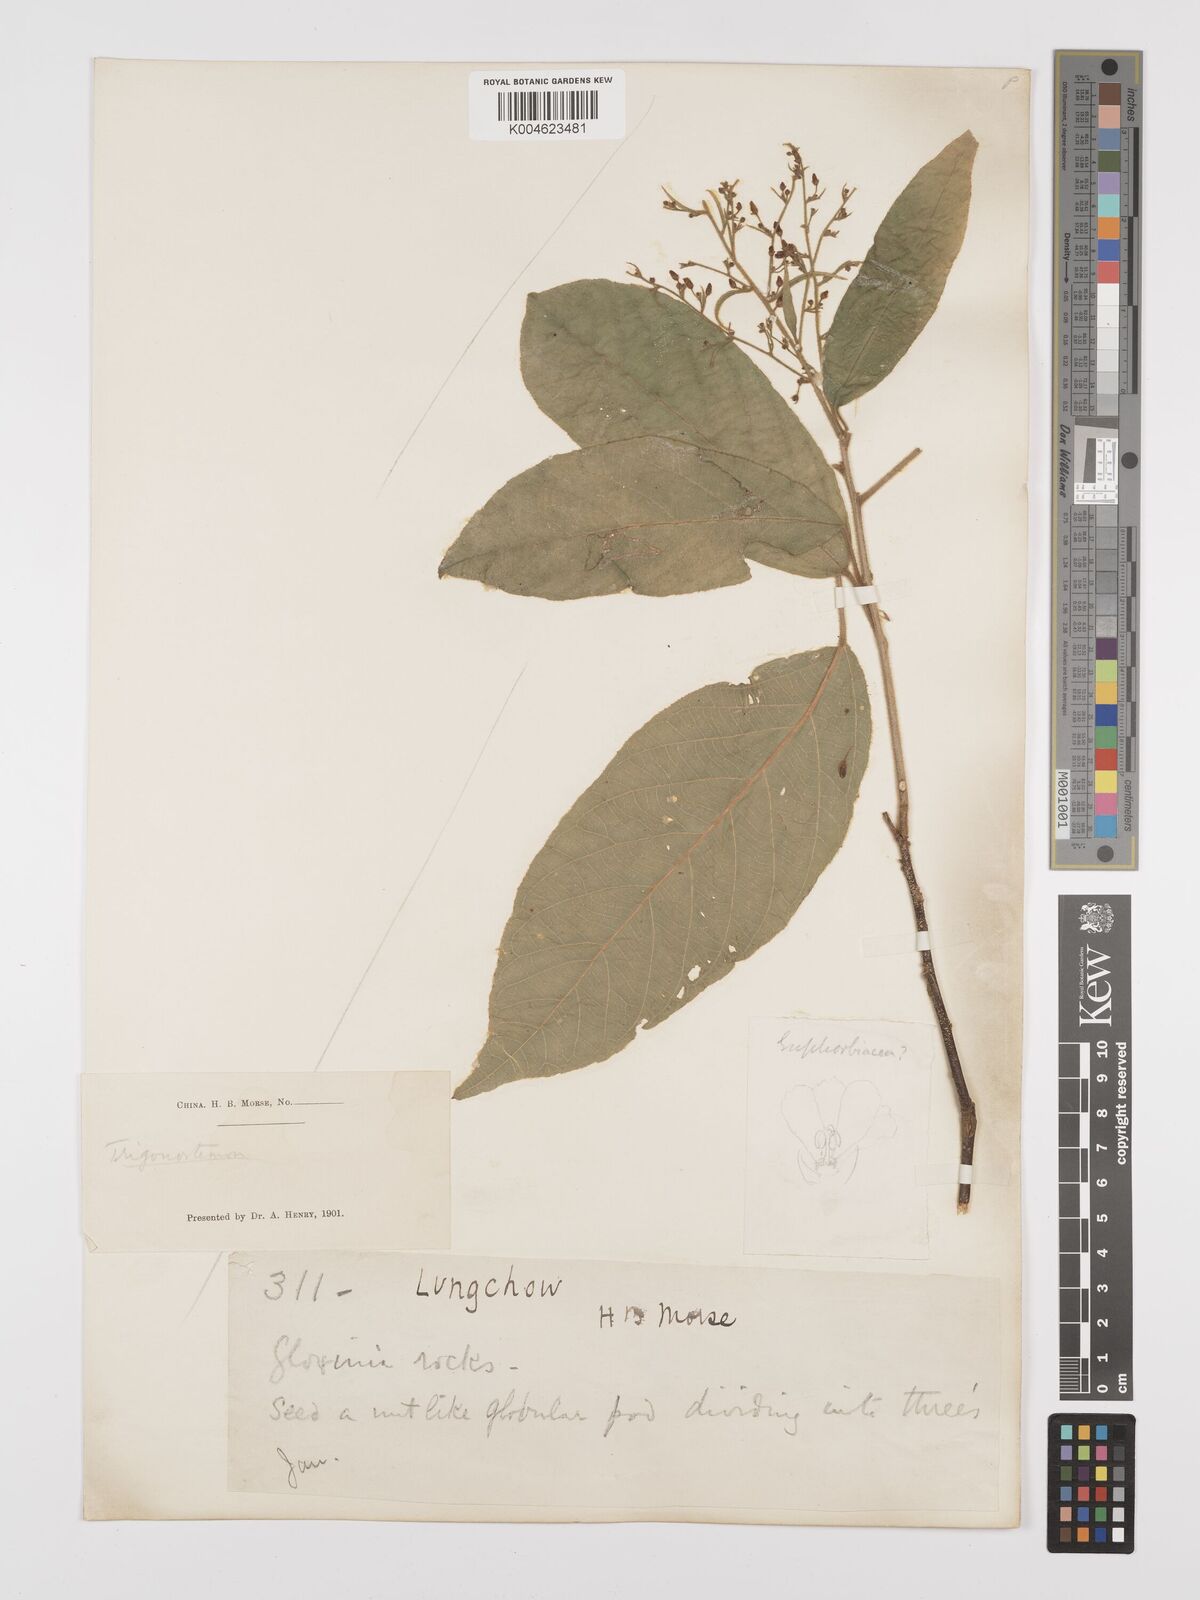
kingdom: Plantae
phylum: Tracheophyta
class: Magnoliopsida
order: Malpighiales
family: Euphorbiaceae
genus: Trigonostemon
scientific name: Trigonostemon
